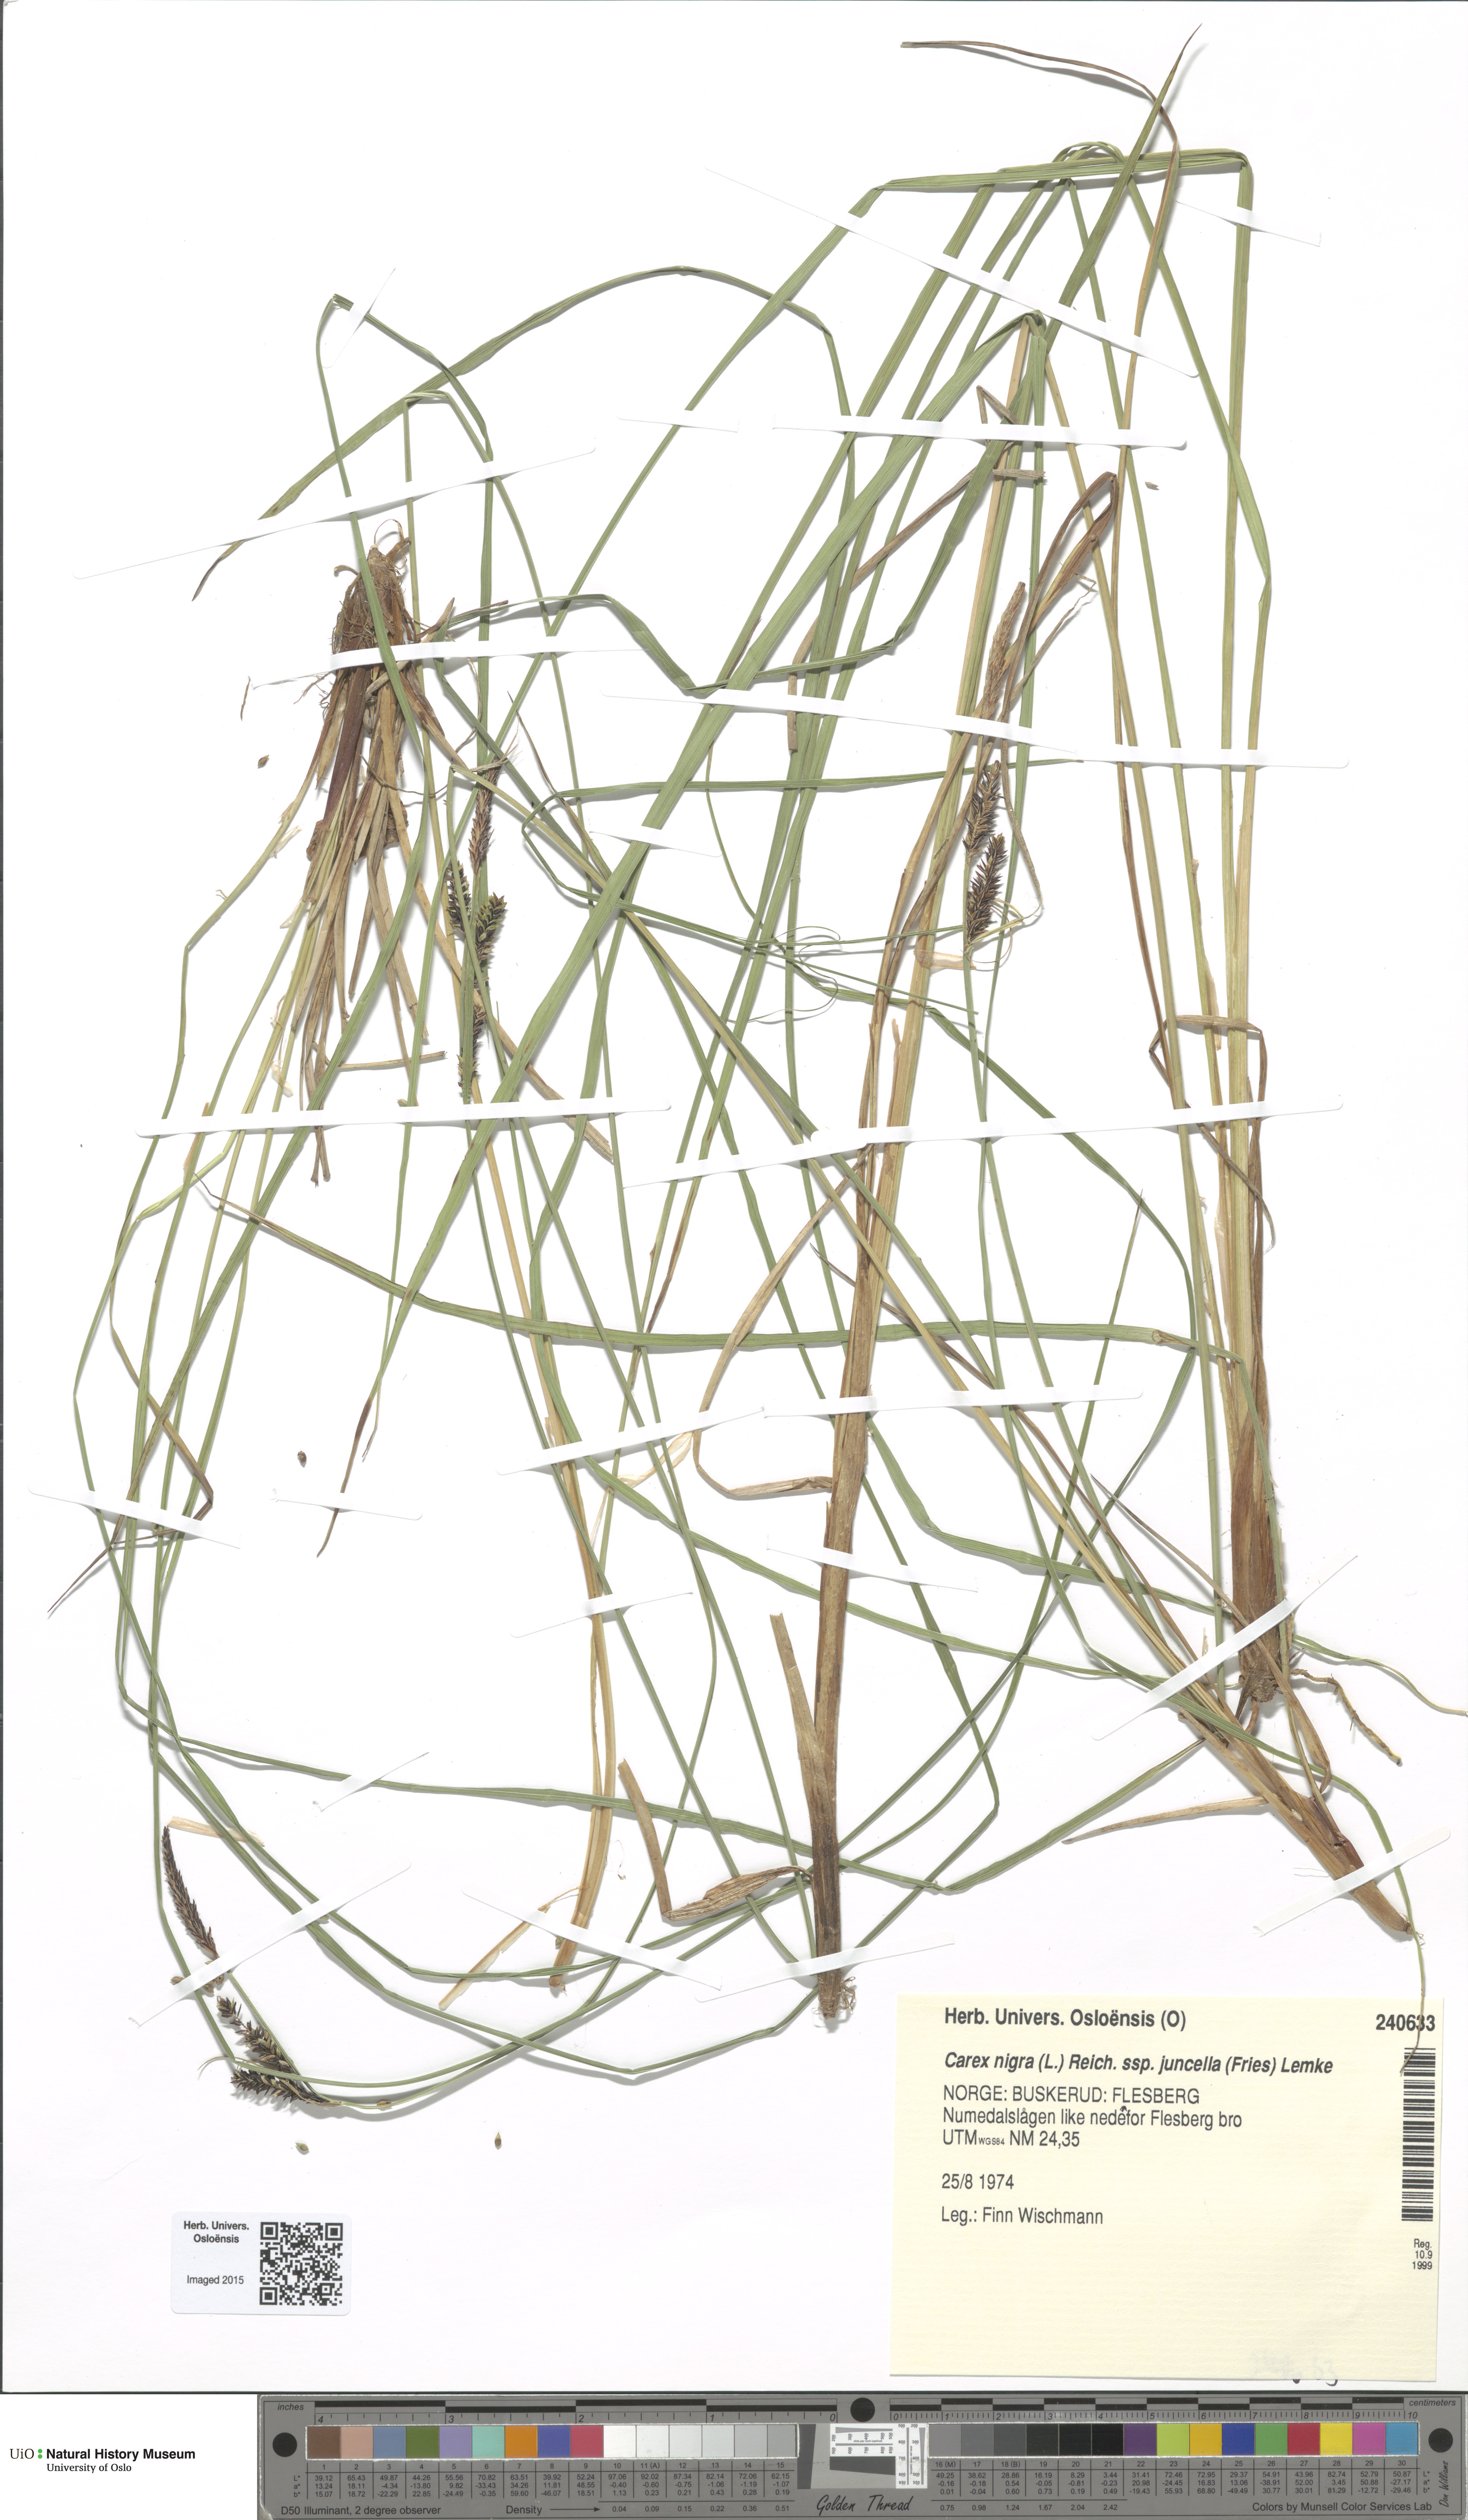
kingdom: Plantae
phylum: Tracheophyta
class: Liliopsida
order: Poales
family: Cyperaceae
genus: Carex
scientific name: Carex nigra
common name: Common sedge
